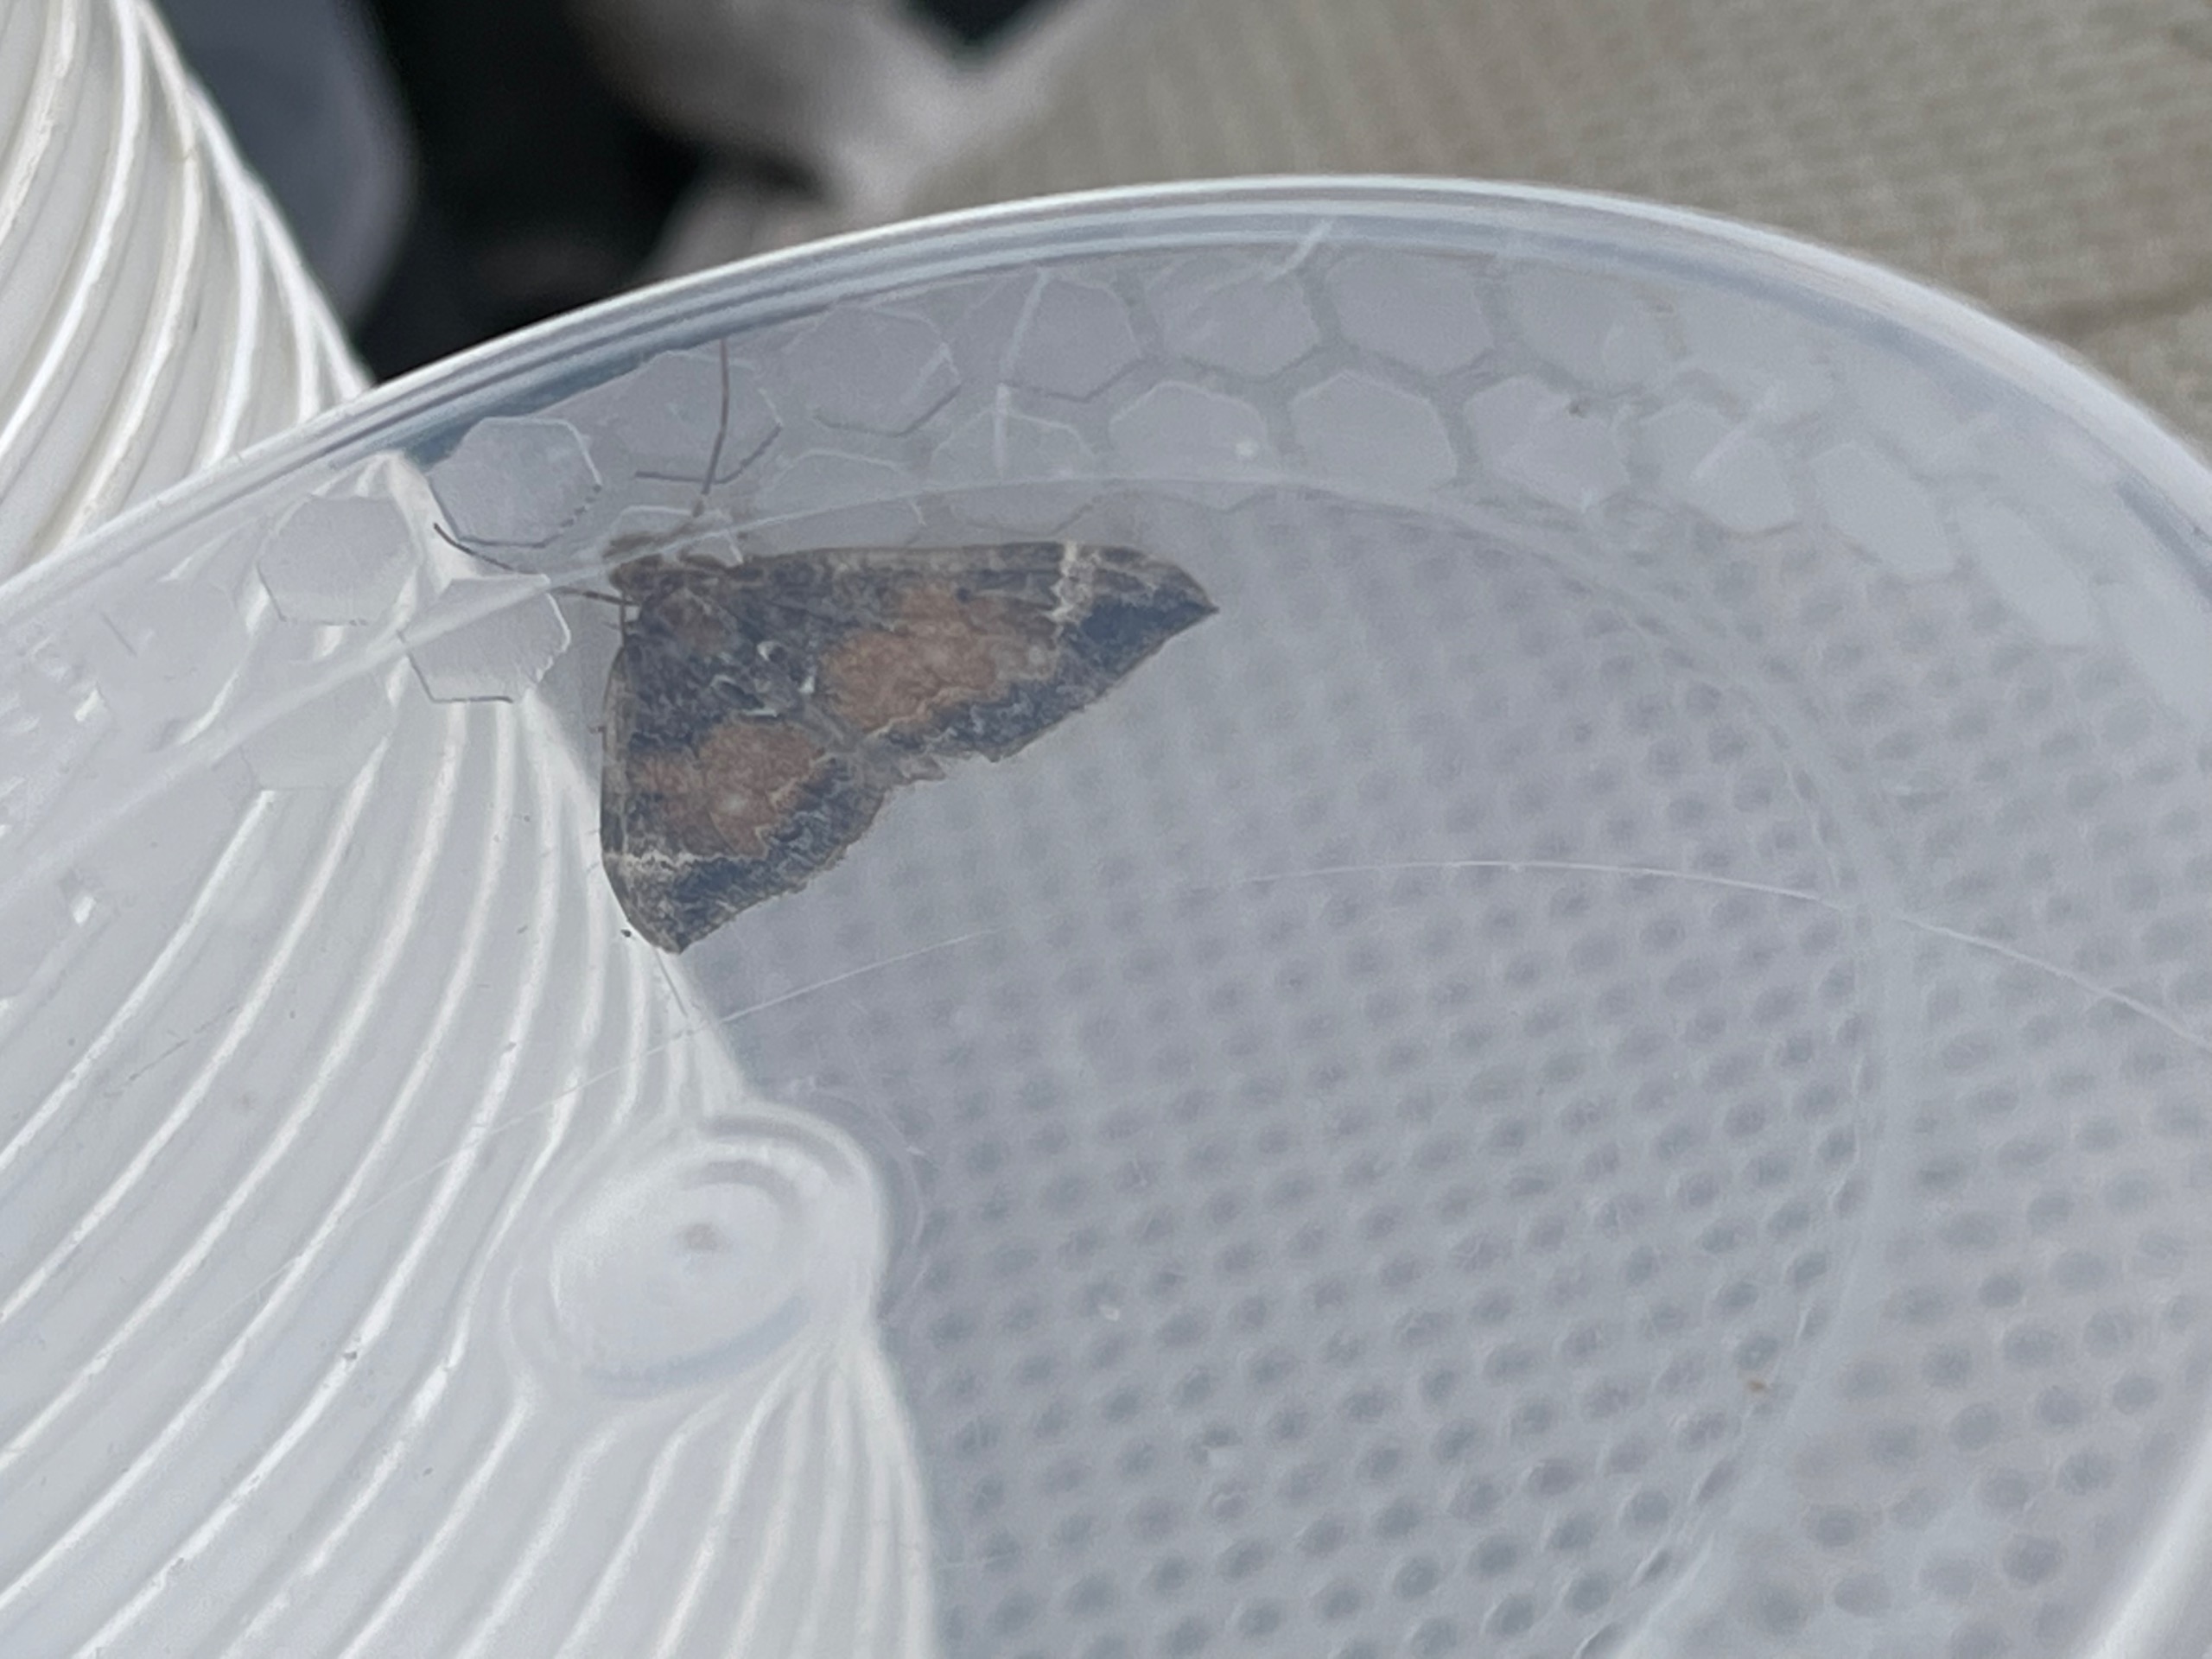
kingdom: Animalia
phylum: Arthropoda
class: Insecta
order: Lepidoptera
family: Geometridae
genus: Dysstroma
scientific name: Dysstroma truncata
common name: Jordbær-bladmåler
